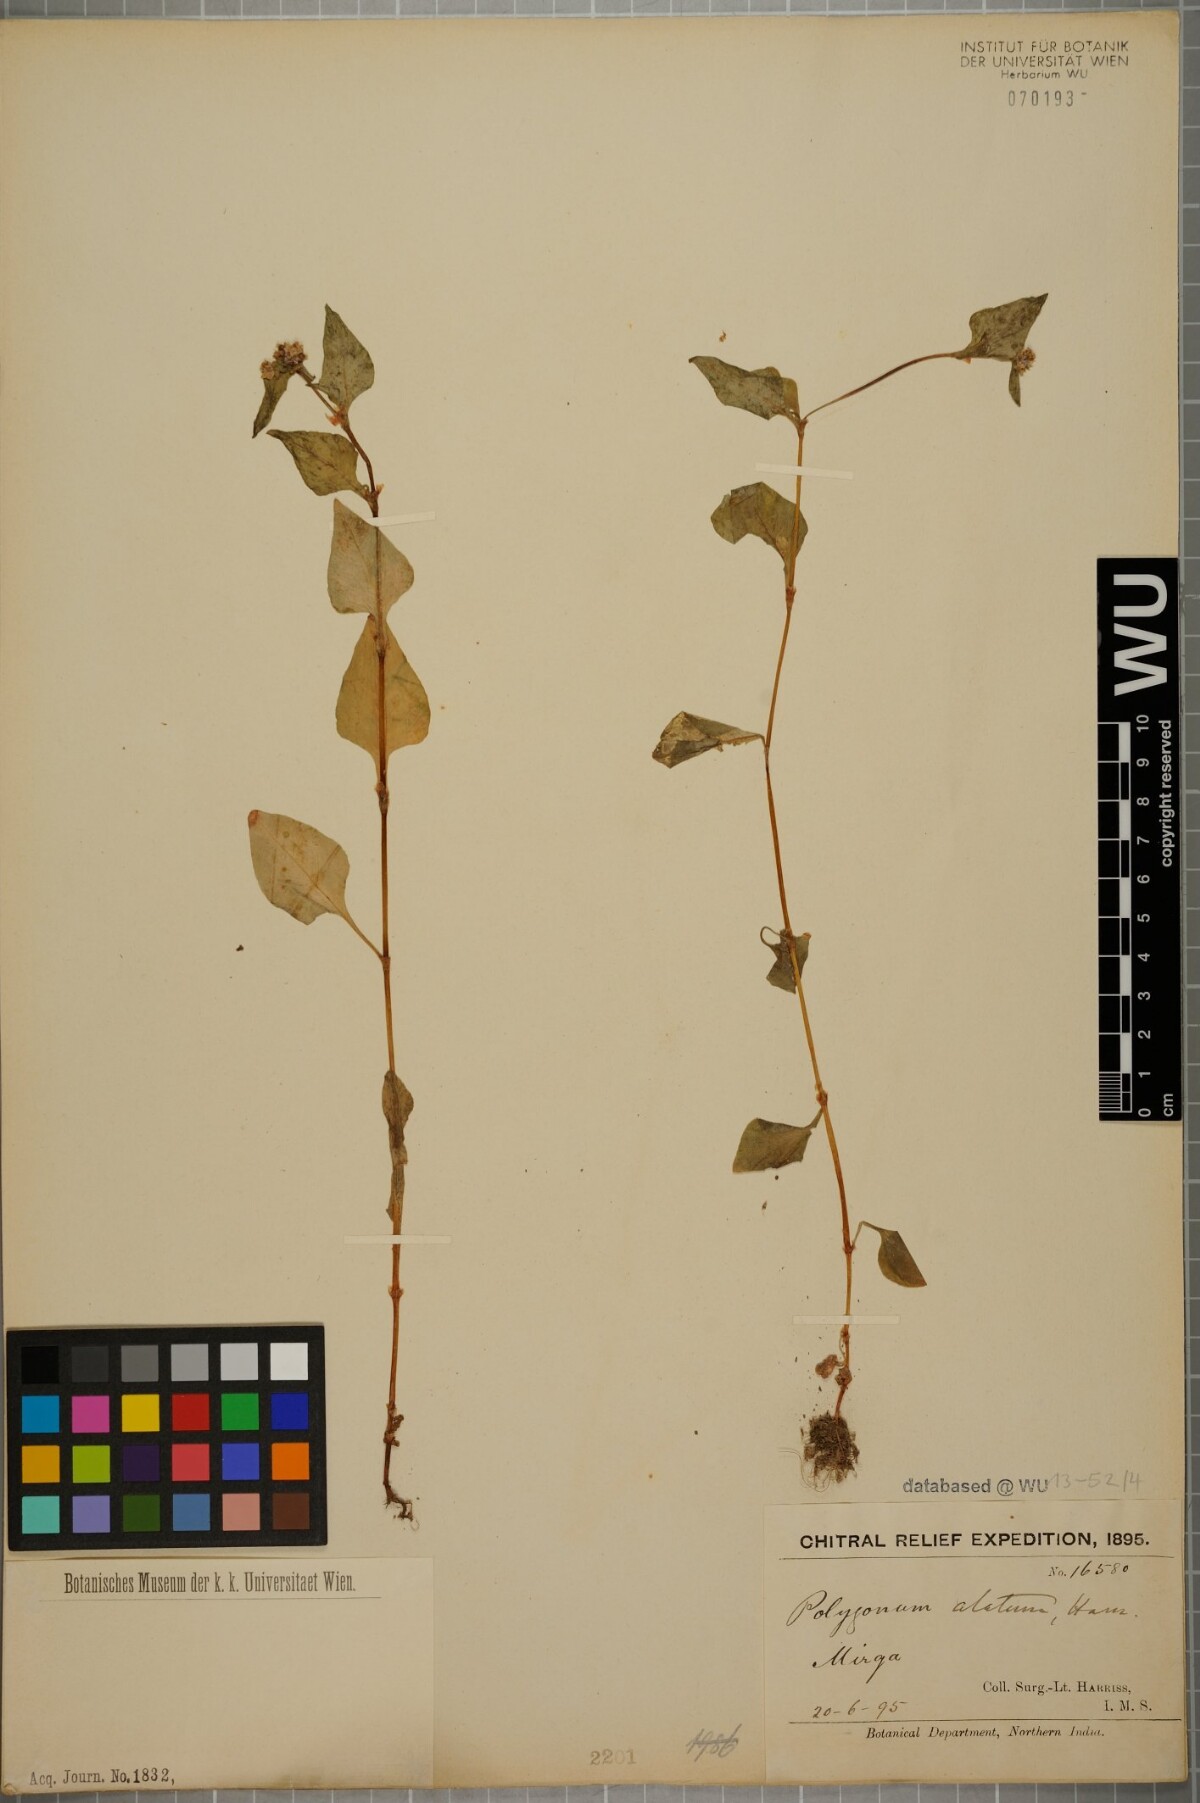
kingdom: Plantae
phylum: Tracheophyta
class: Magnoliopsida
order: Caryophyllales
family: Polygonaceae
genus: Persicaria
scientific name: Persicaria nepalensis
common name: Nepal persicaria
